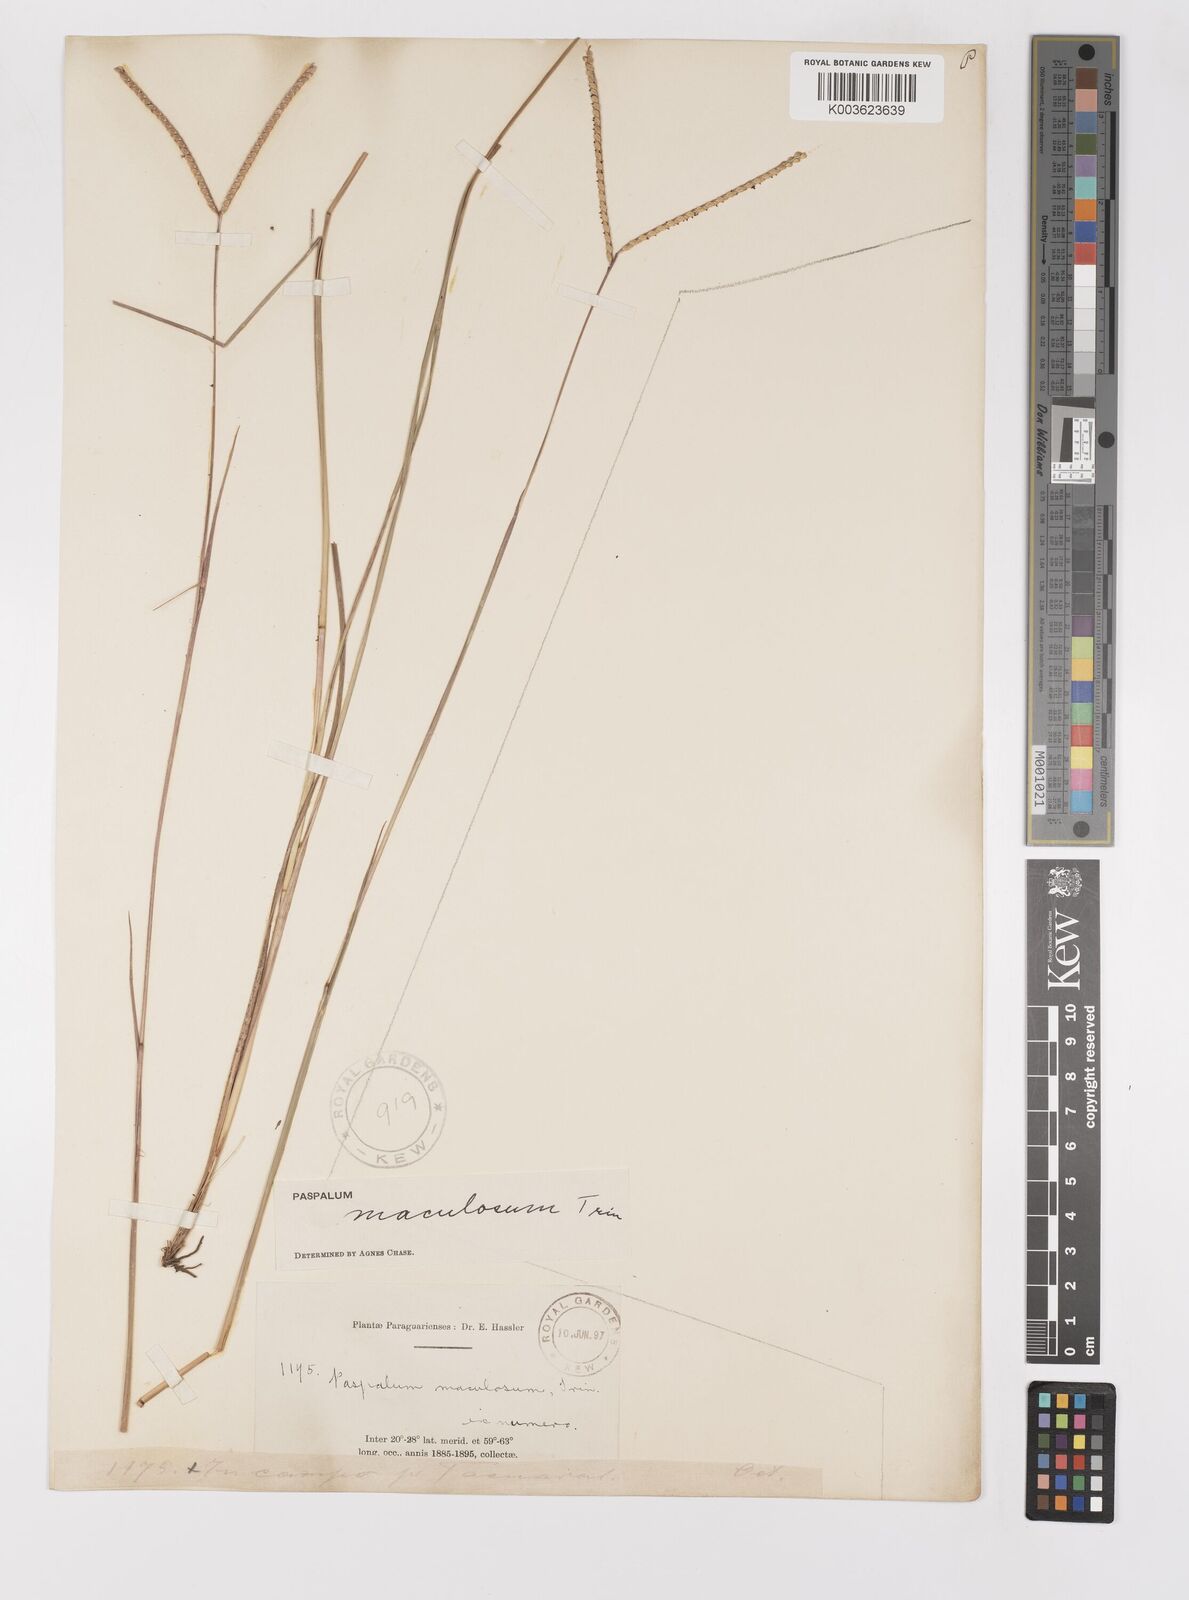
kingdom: Plantae
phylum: Tracheophyta
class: Liliopsida
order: Poales
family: Poaceae
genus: Paspalum
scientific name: Paspalum maculosum
